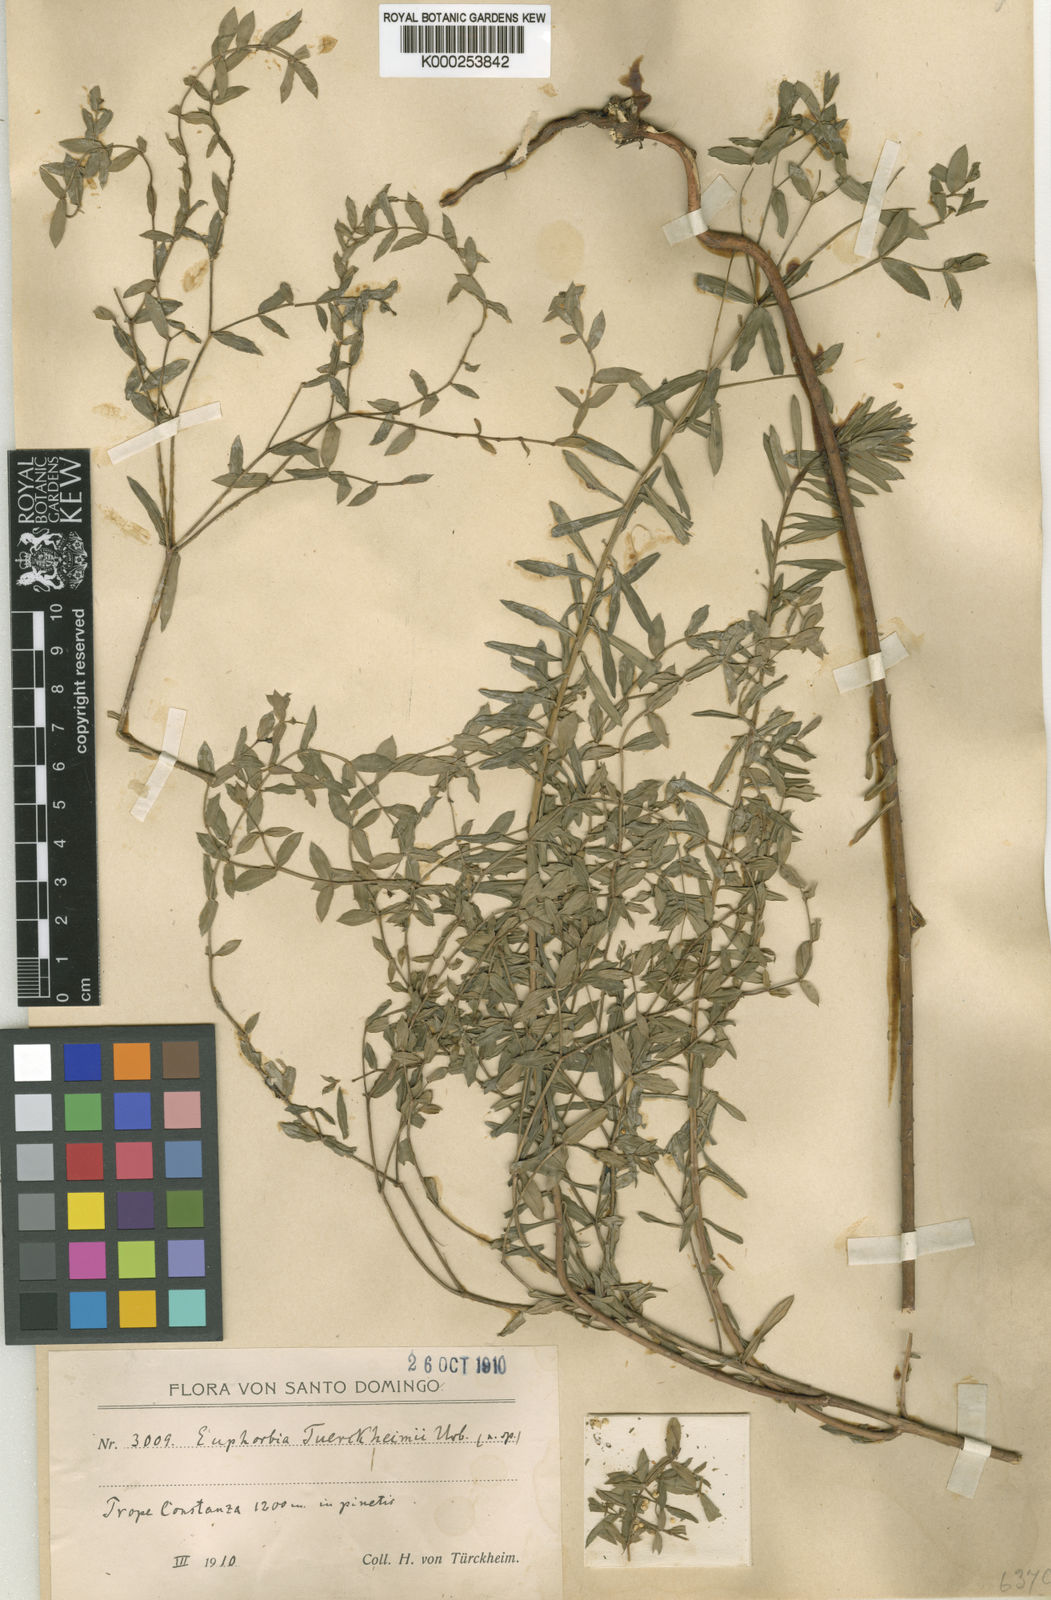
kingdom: Plantae
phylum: Tracheophyta
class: Magnoliopsida
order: Malpighiales
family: Euphorbiaceae
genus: Euphorbia
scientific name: Euphorbia tuerckheimii
